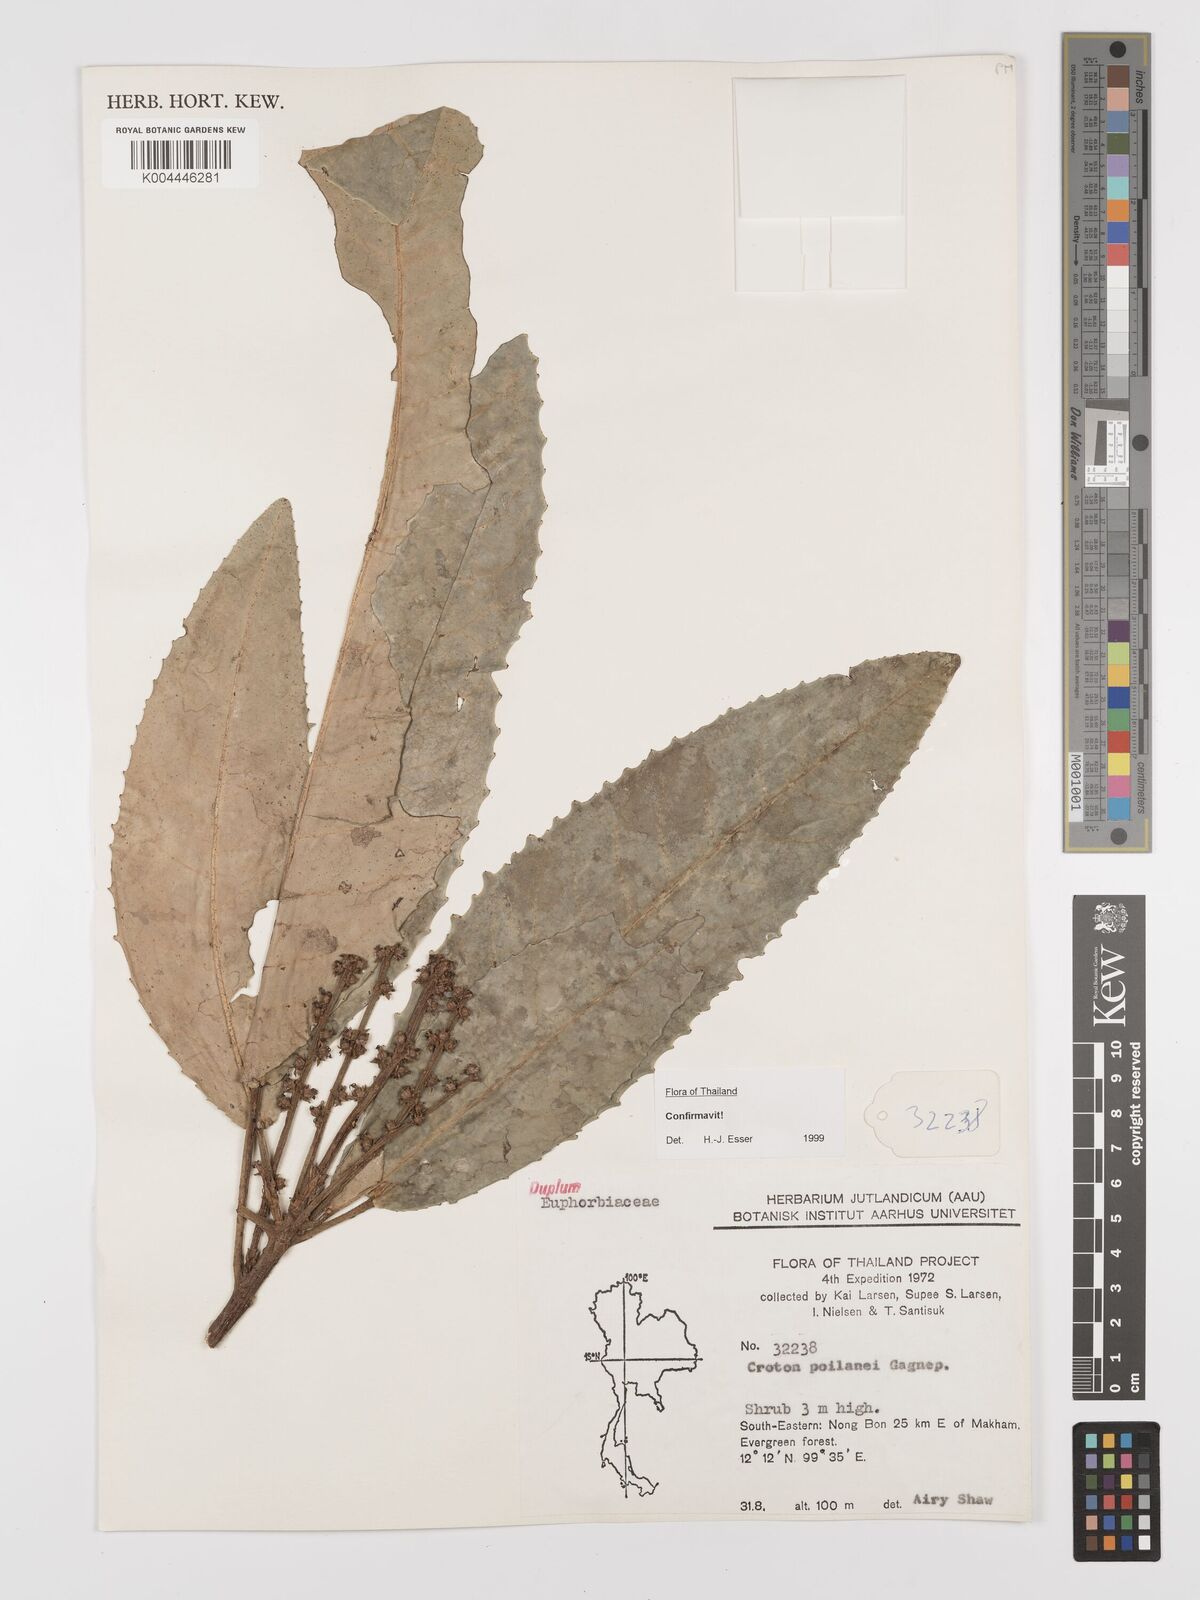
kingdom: Plantae
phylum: Tracheophyta
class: Magnoliopsida
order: Malpighiales
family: Euphorbiaceae
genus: Croton
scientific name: Croton poilanei
